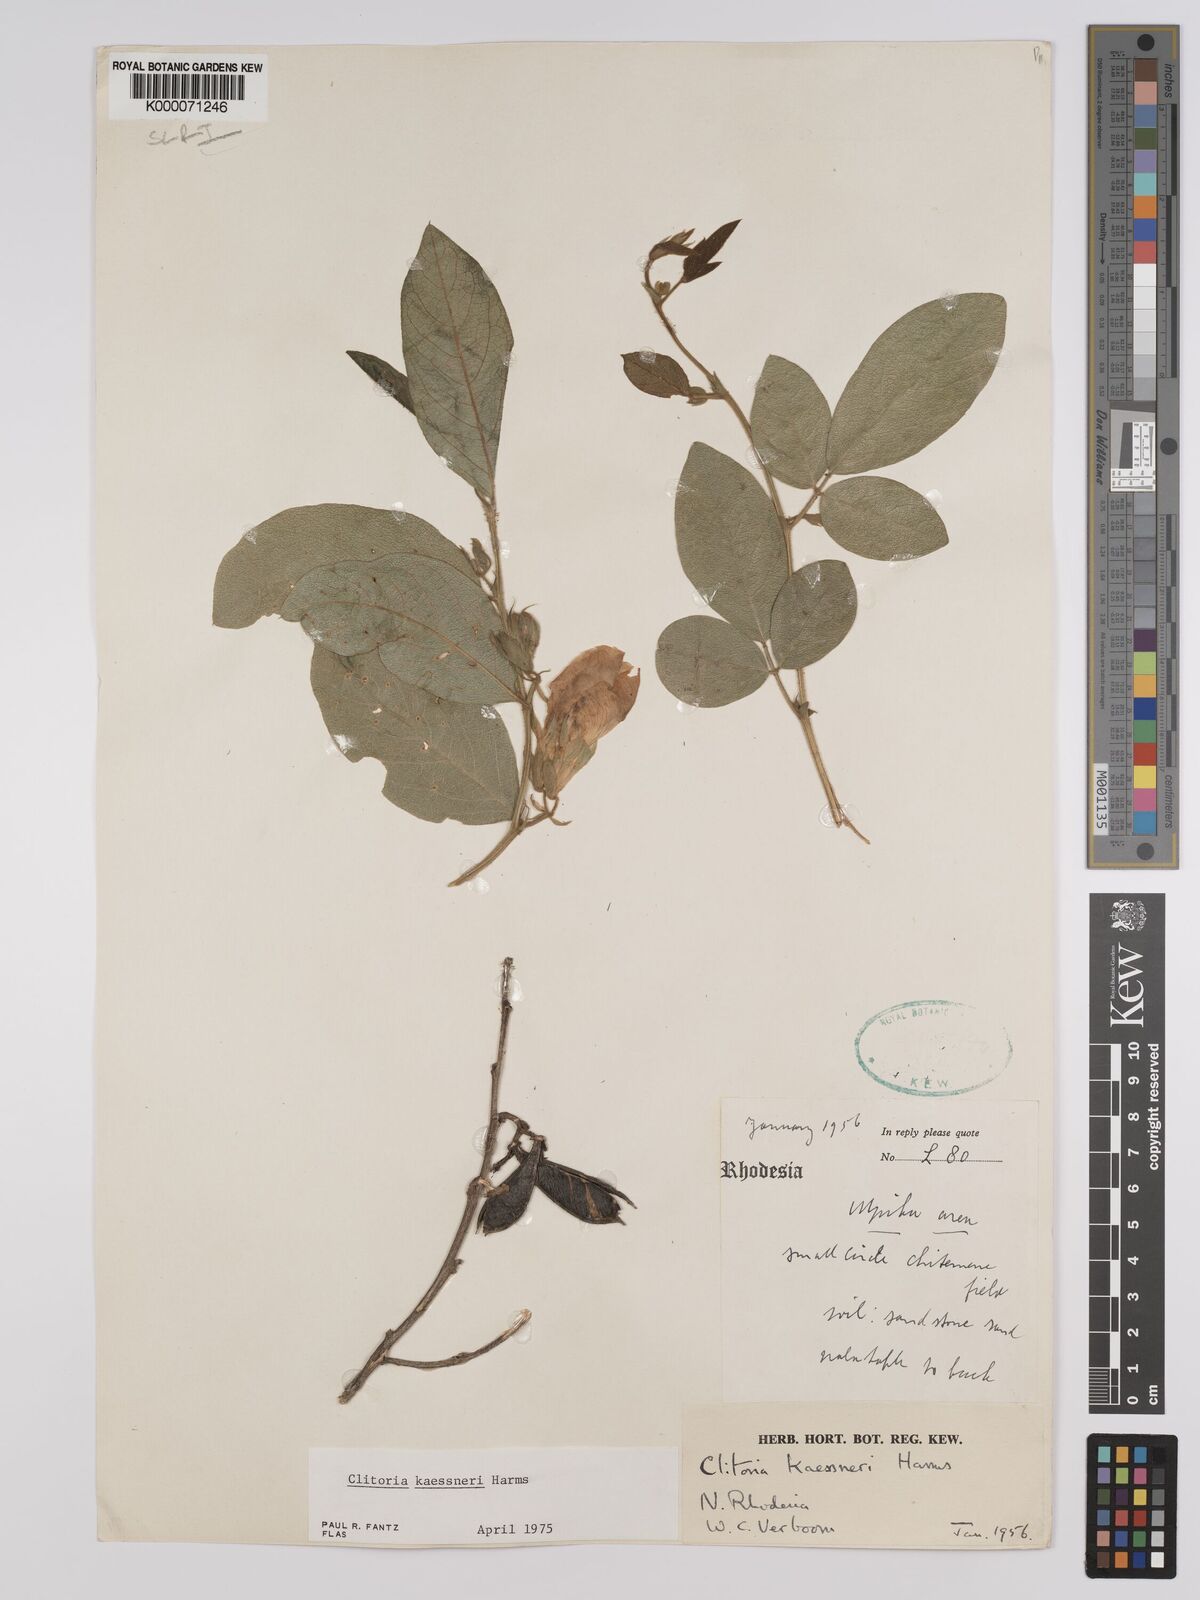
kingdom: Plantae
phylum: Tracheophyta
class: Magnoliopsida
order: Fabales
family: Fabaceae
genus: Clitoria
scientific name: Clitoria kaessneri
